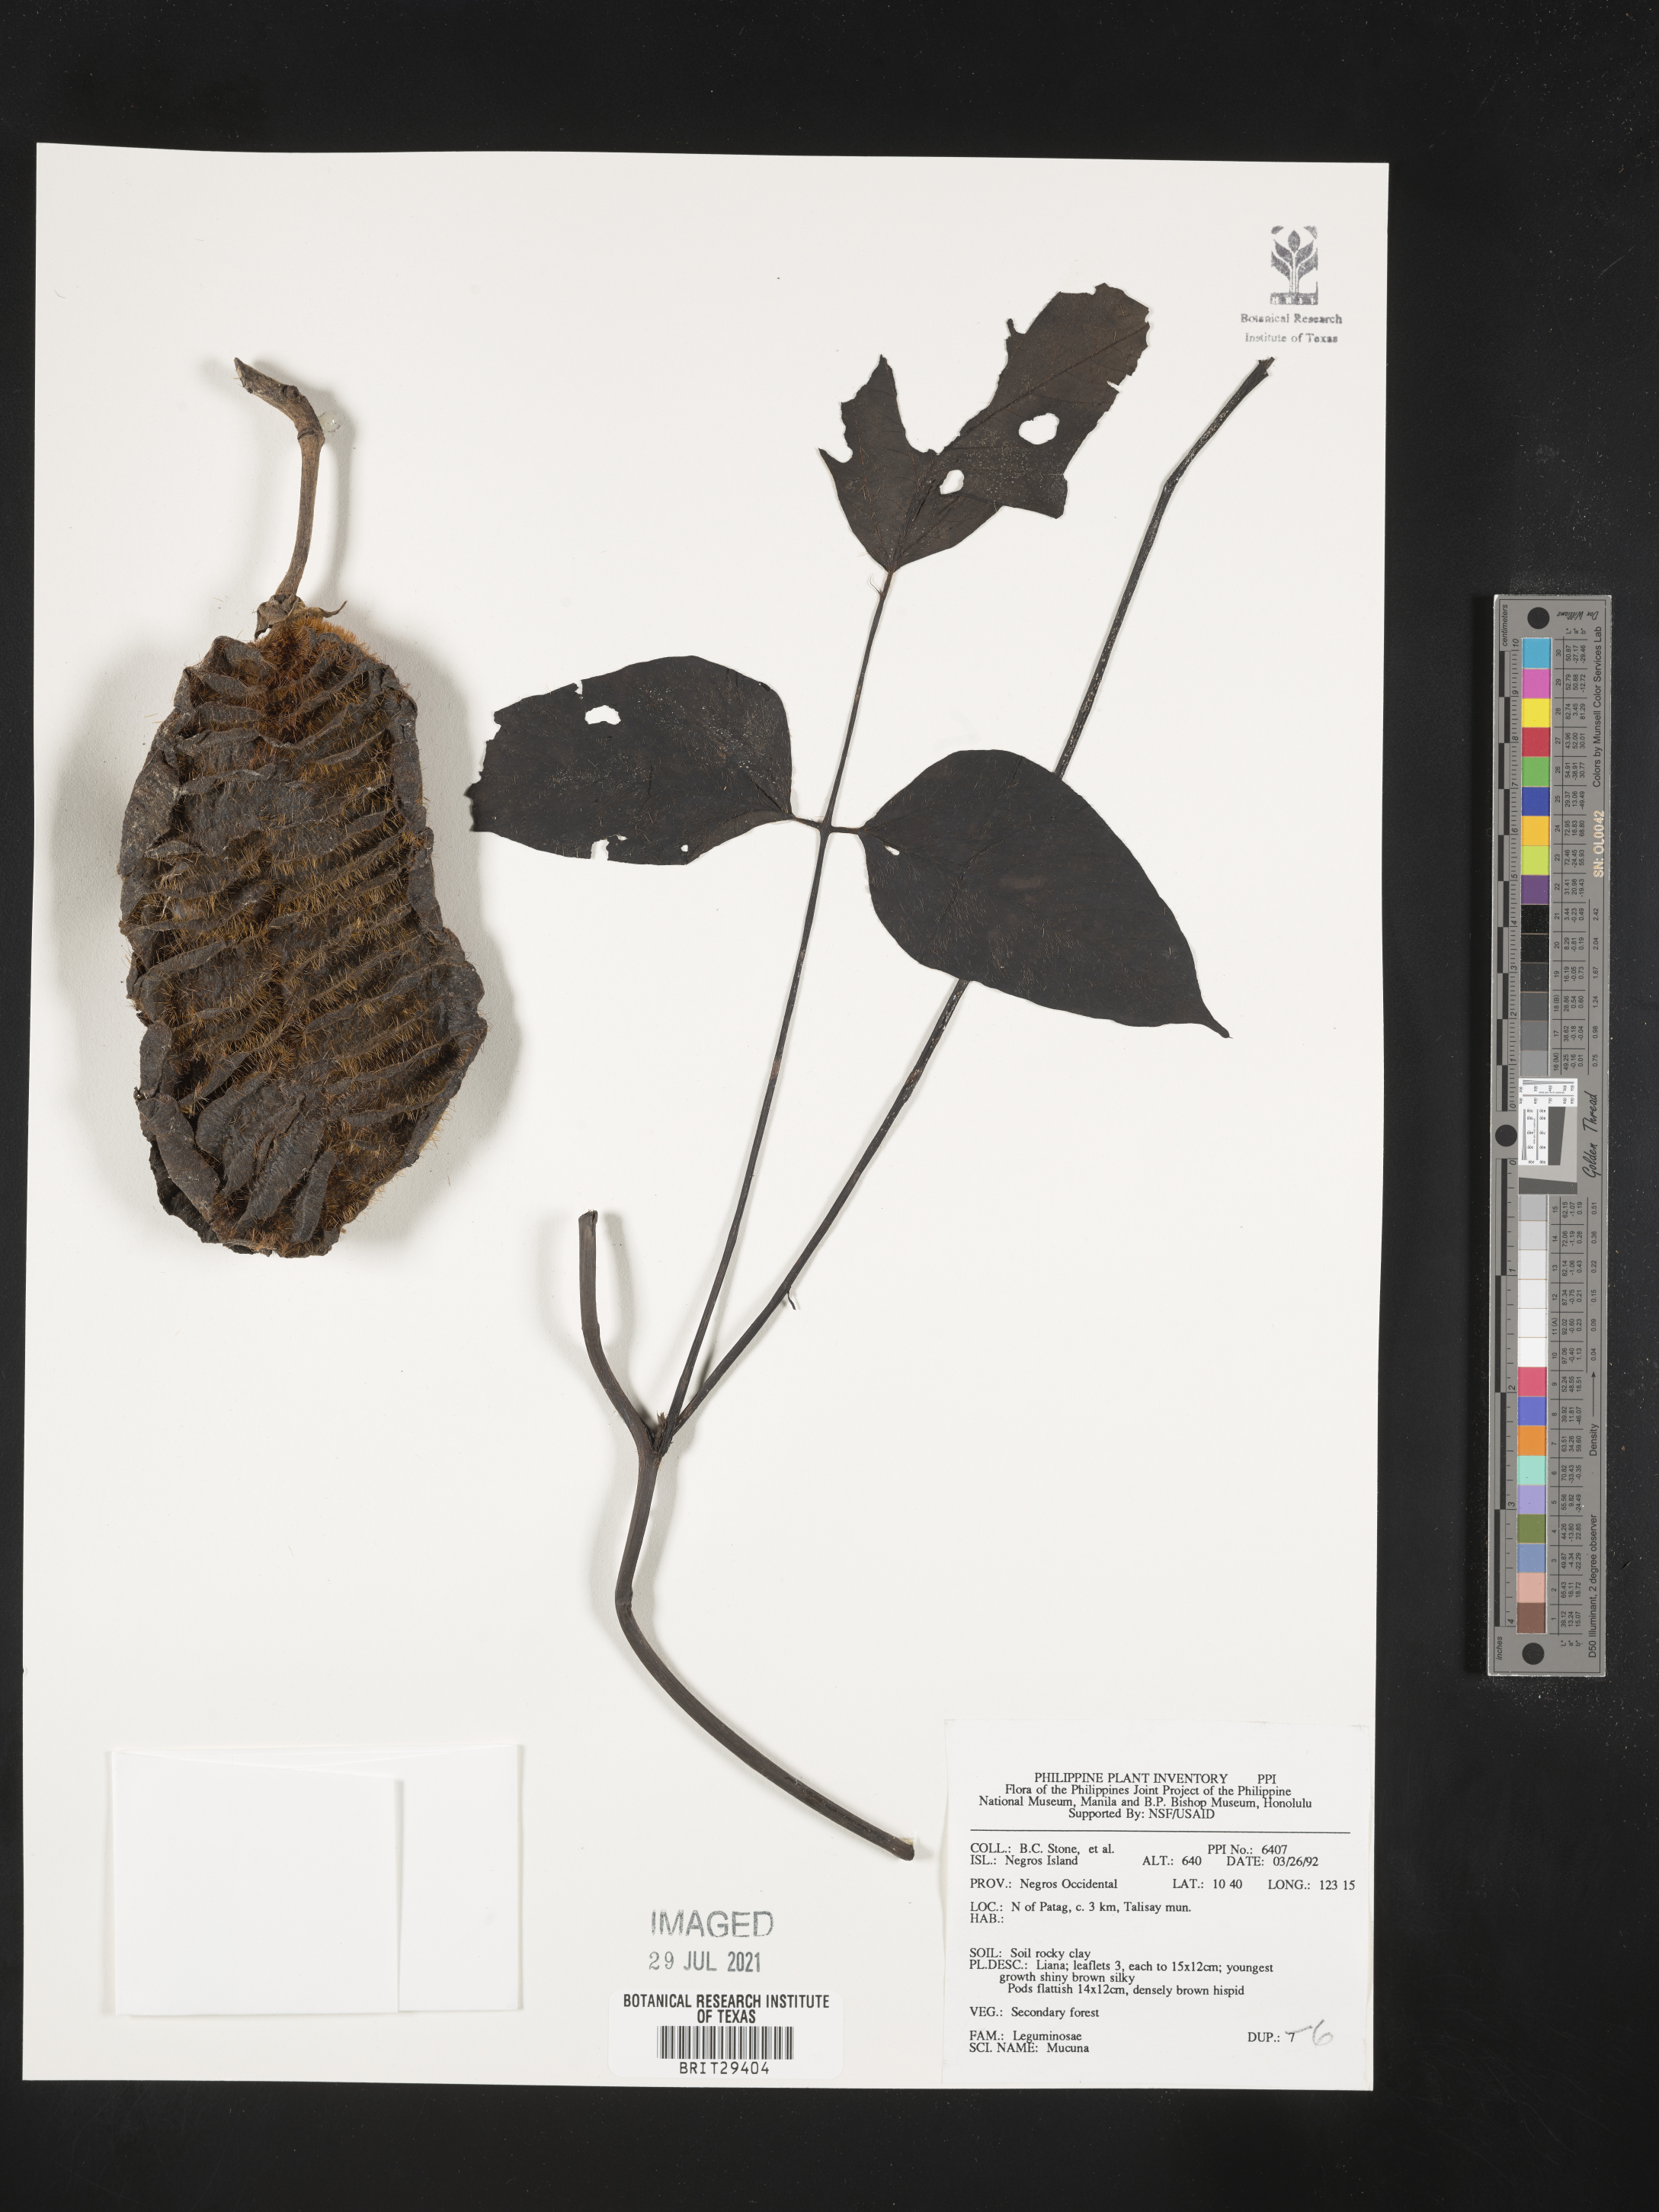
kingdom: Plantae
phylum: Tracheophyta
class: Magnoliopsida
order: Fabales
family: Fabaceae
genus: Mucuna
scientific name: Mucuna
